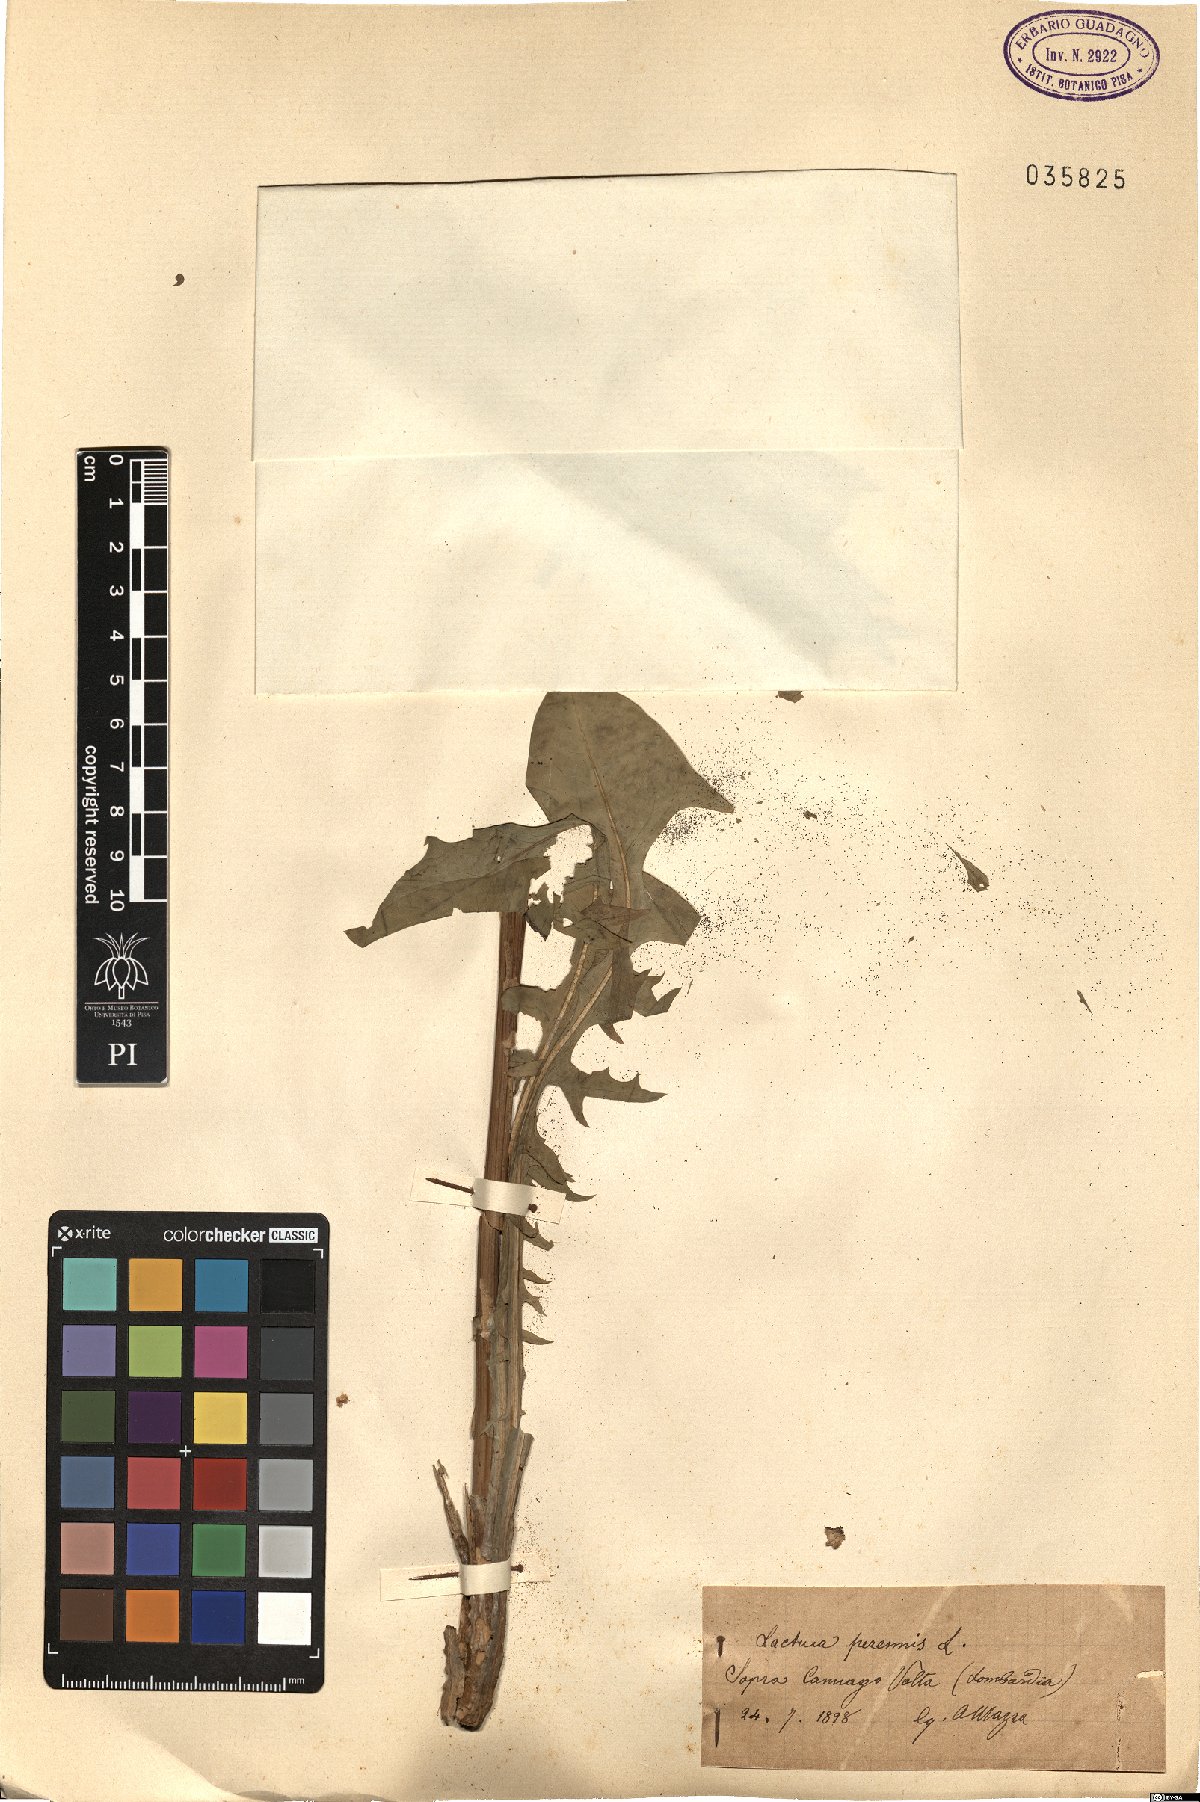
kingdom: Plantae
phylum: Tracheophyta
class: Magnoliopsida
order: Asterales
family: Asteraceae
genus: Lactuca
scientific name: Lactuca perennis
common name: Mountain lettuce
